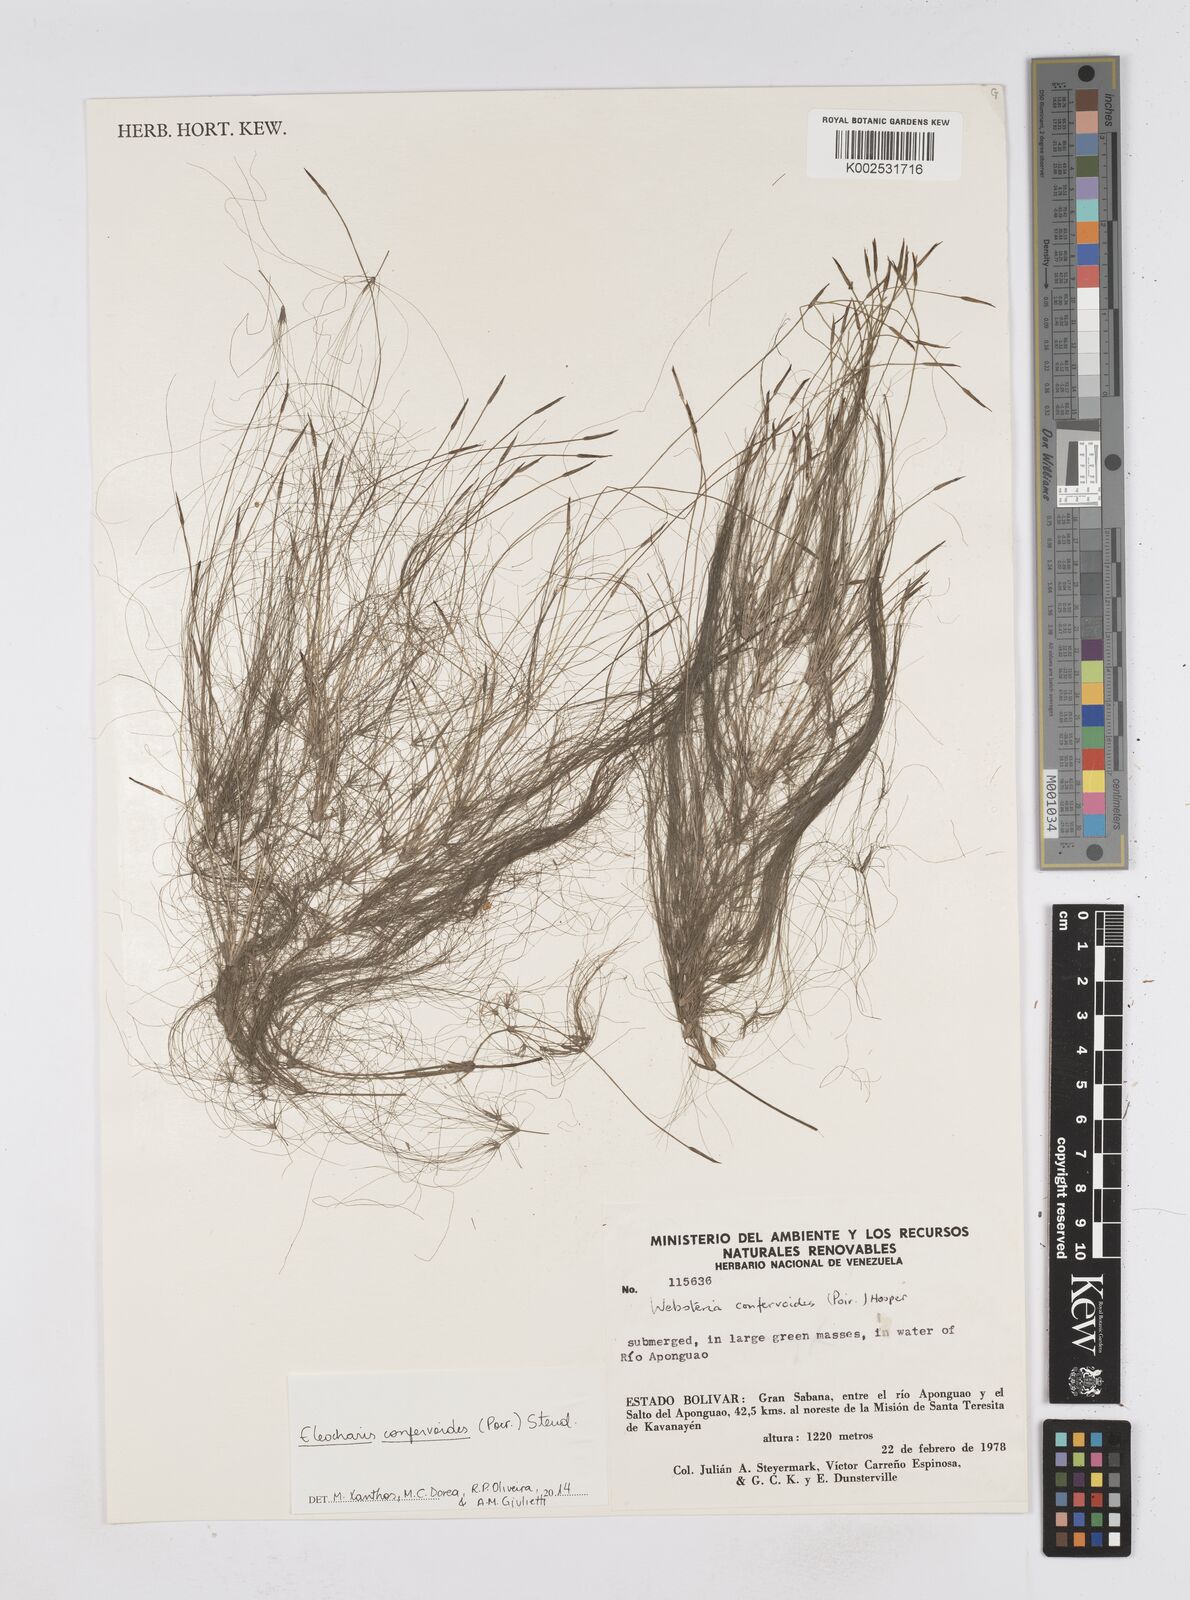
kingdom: Plantae
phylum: Tracheophyta
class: Liliopsida
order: Poales
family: Cyperaceae
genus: Eleocharis
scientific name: Eleocharis confervoides
